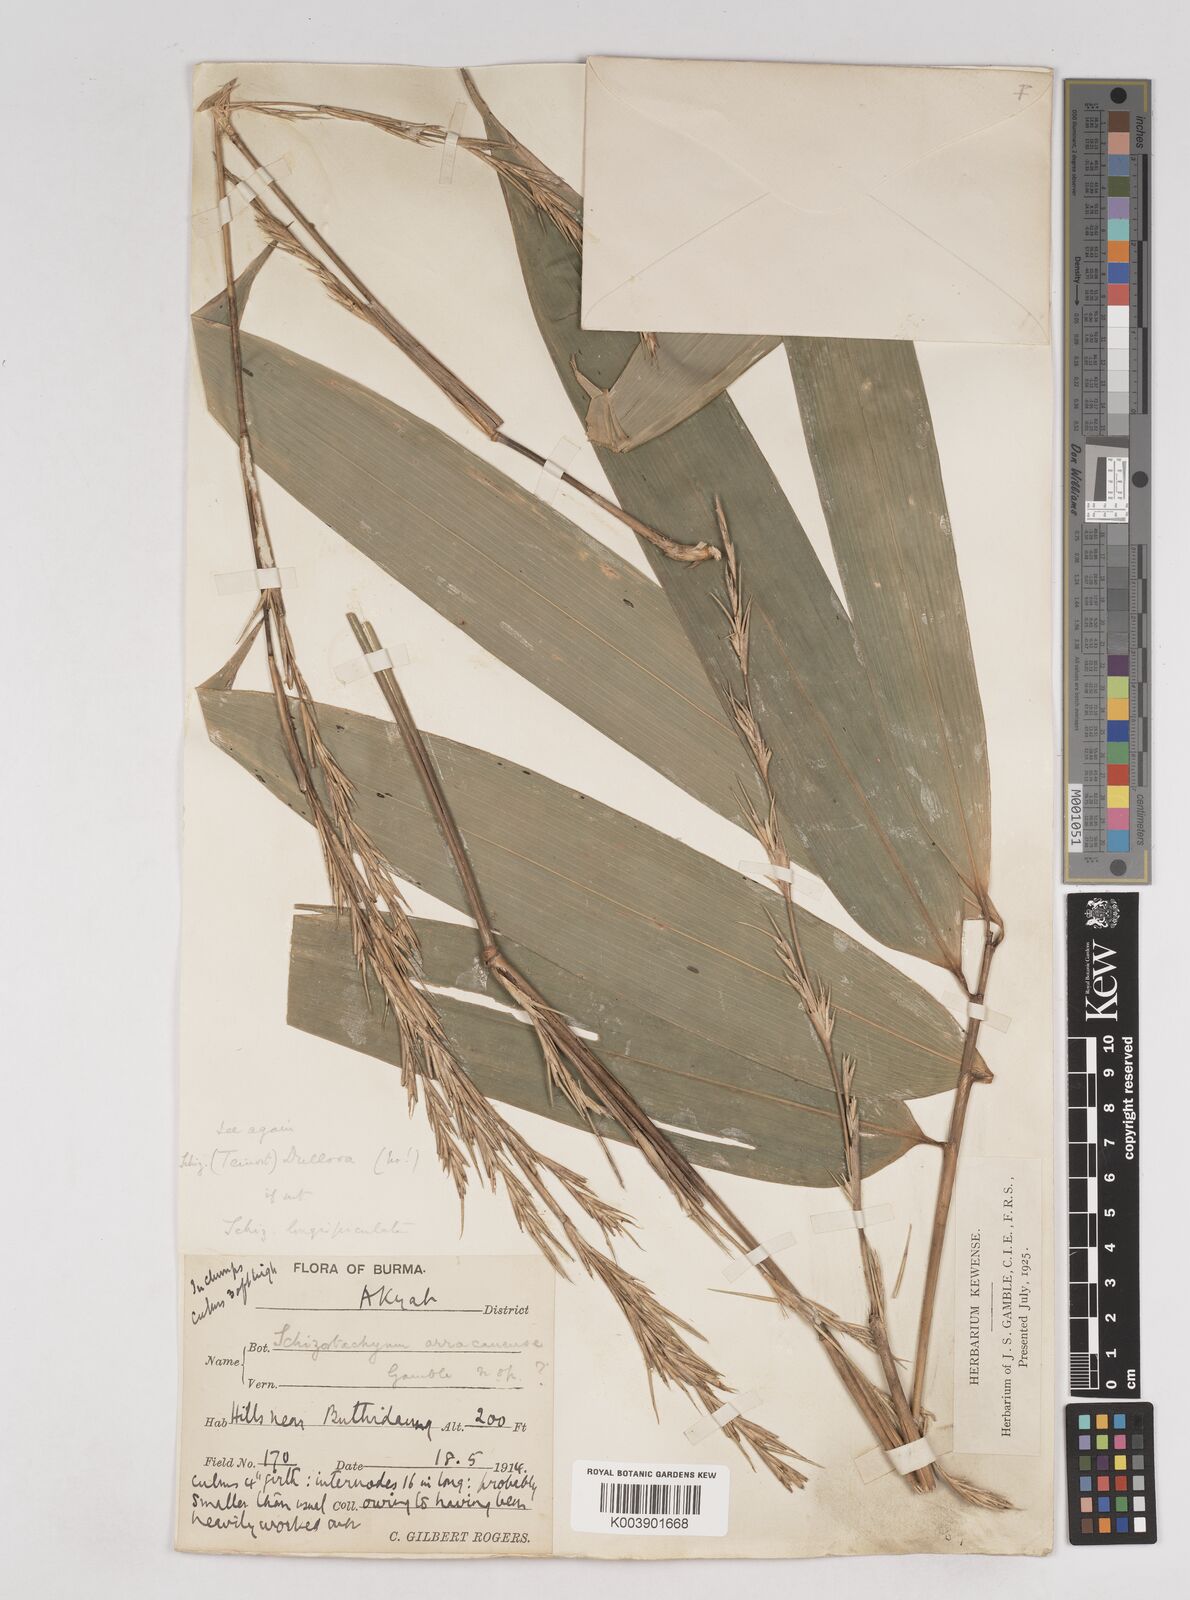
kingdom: Plantae
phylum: Tracheophyta
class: Liliopsida
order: Poales
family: Poaceae
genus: Schizostachyum
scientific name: Schizostachyum
